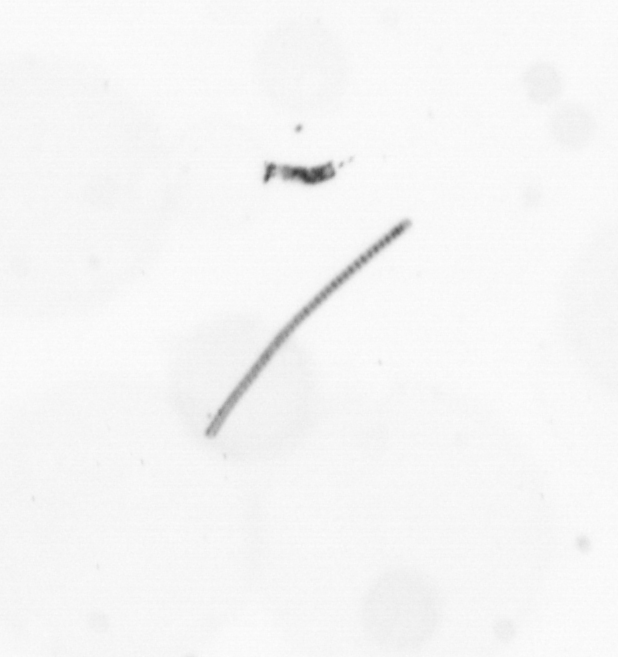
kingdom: Chromista
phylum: Ochrophyta
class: Bacillariophyceae
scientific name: Bacillariophyceae
